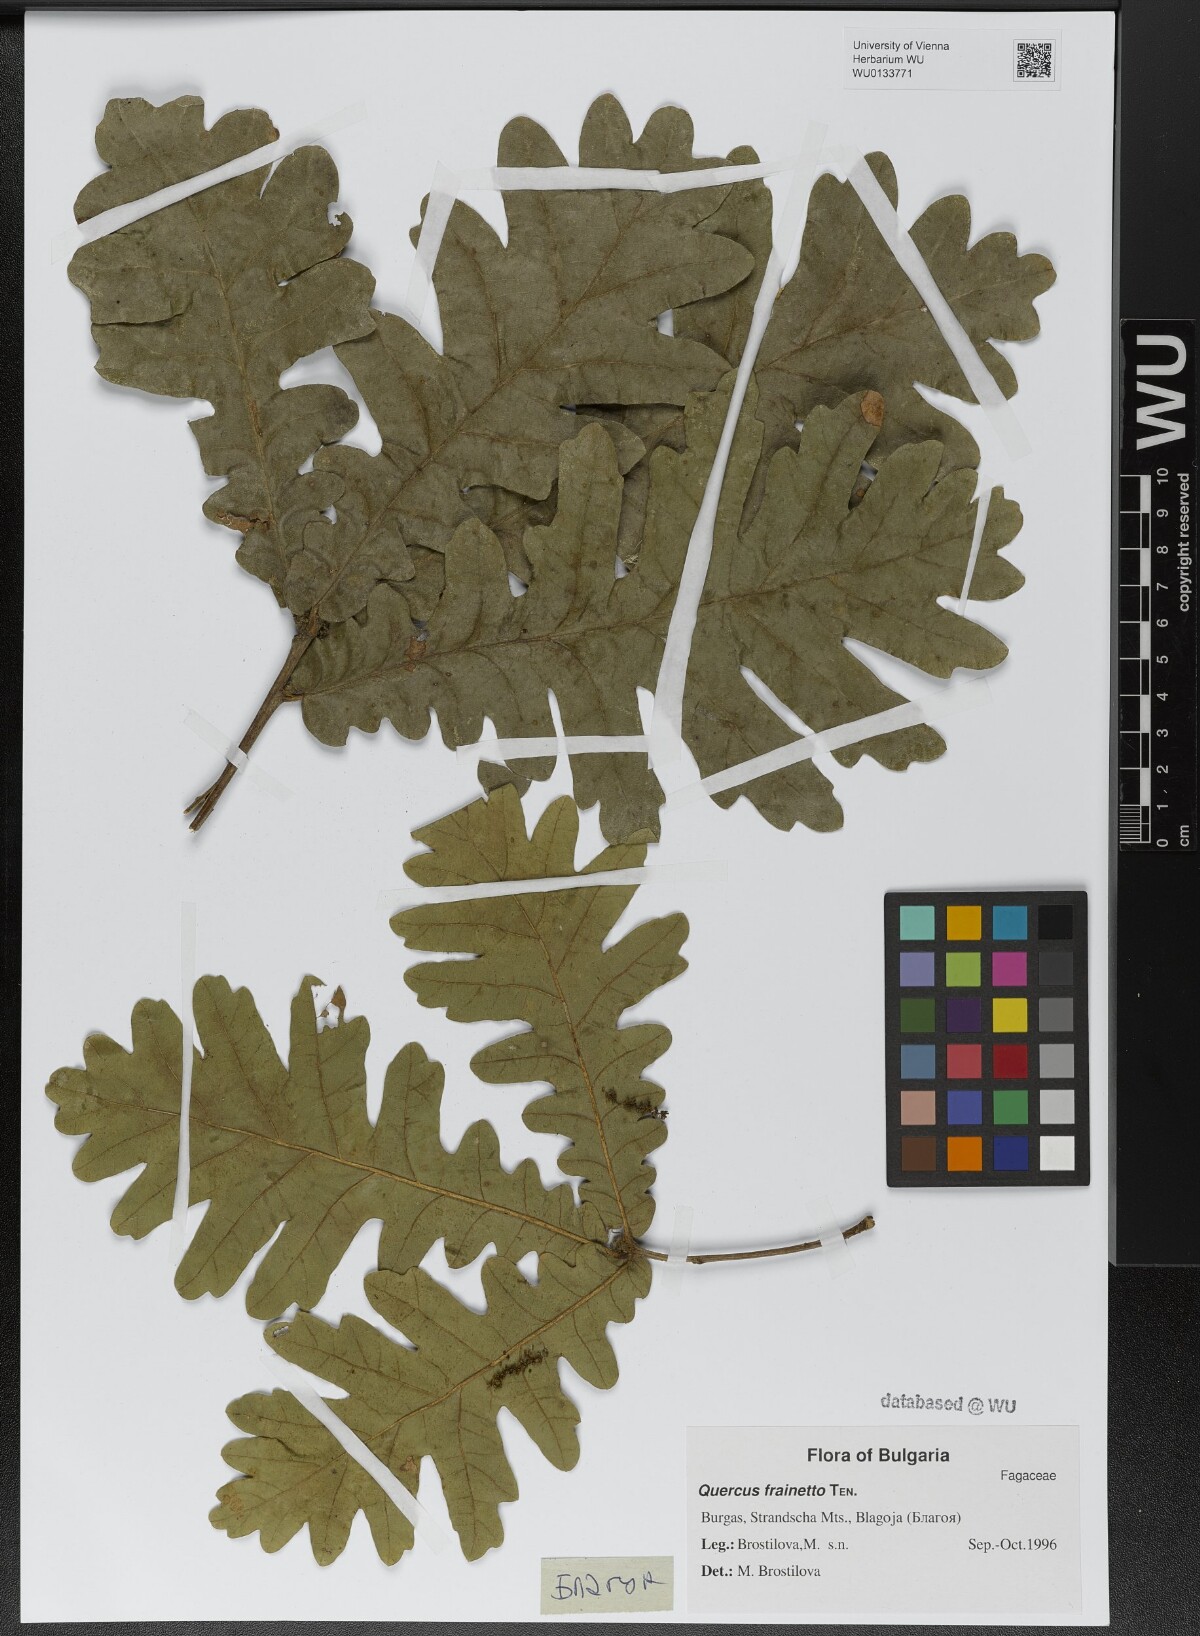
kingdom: Plantae
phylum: Tracheophyta
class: Magnoliopsida
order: Fagales
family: Fagaceae
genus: Quercus
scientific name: Quercus conferta
